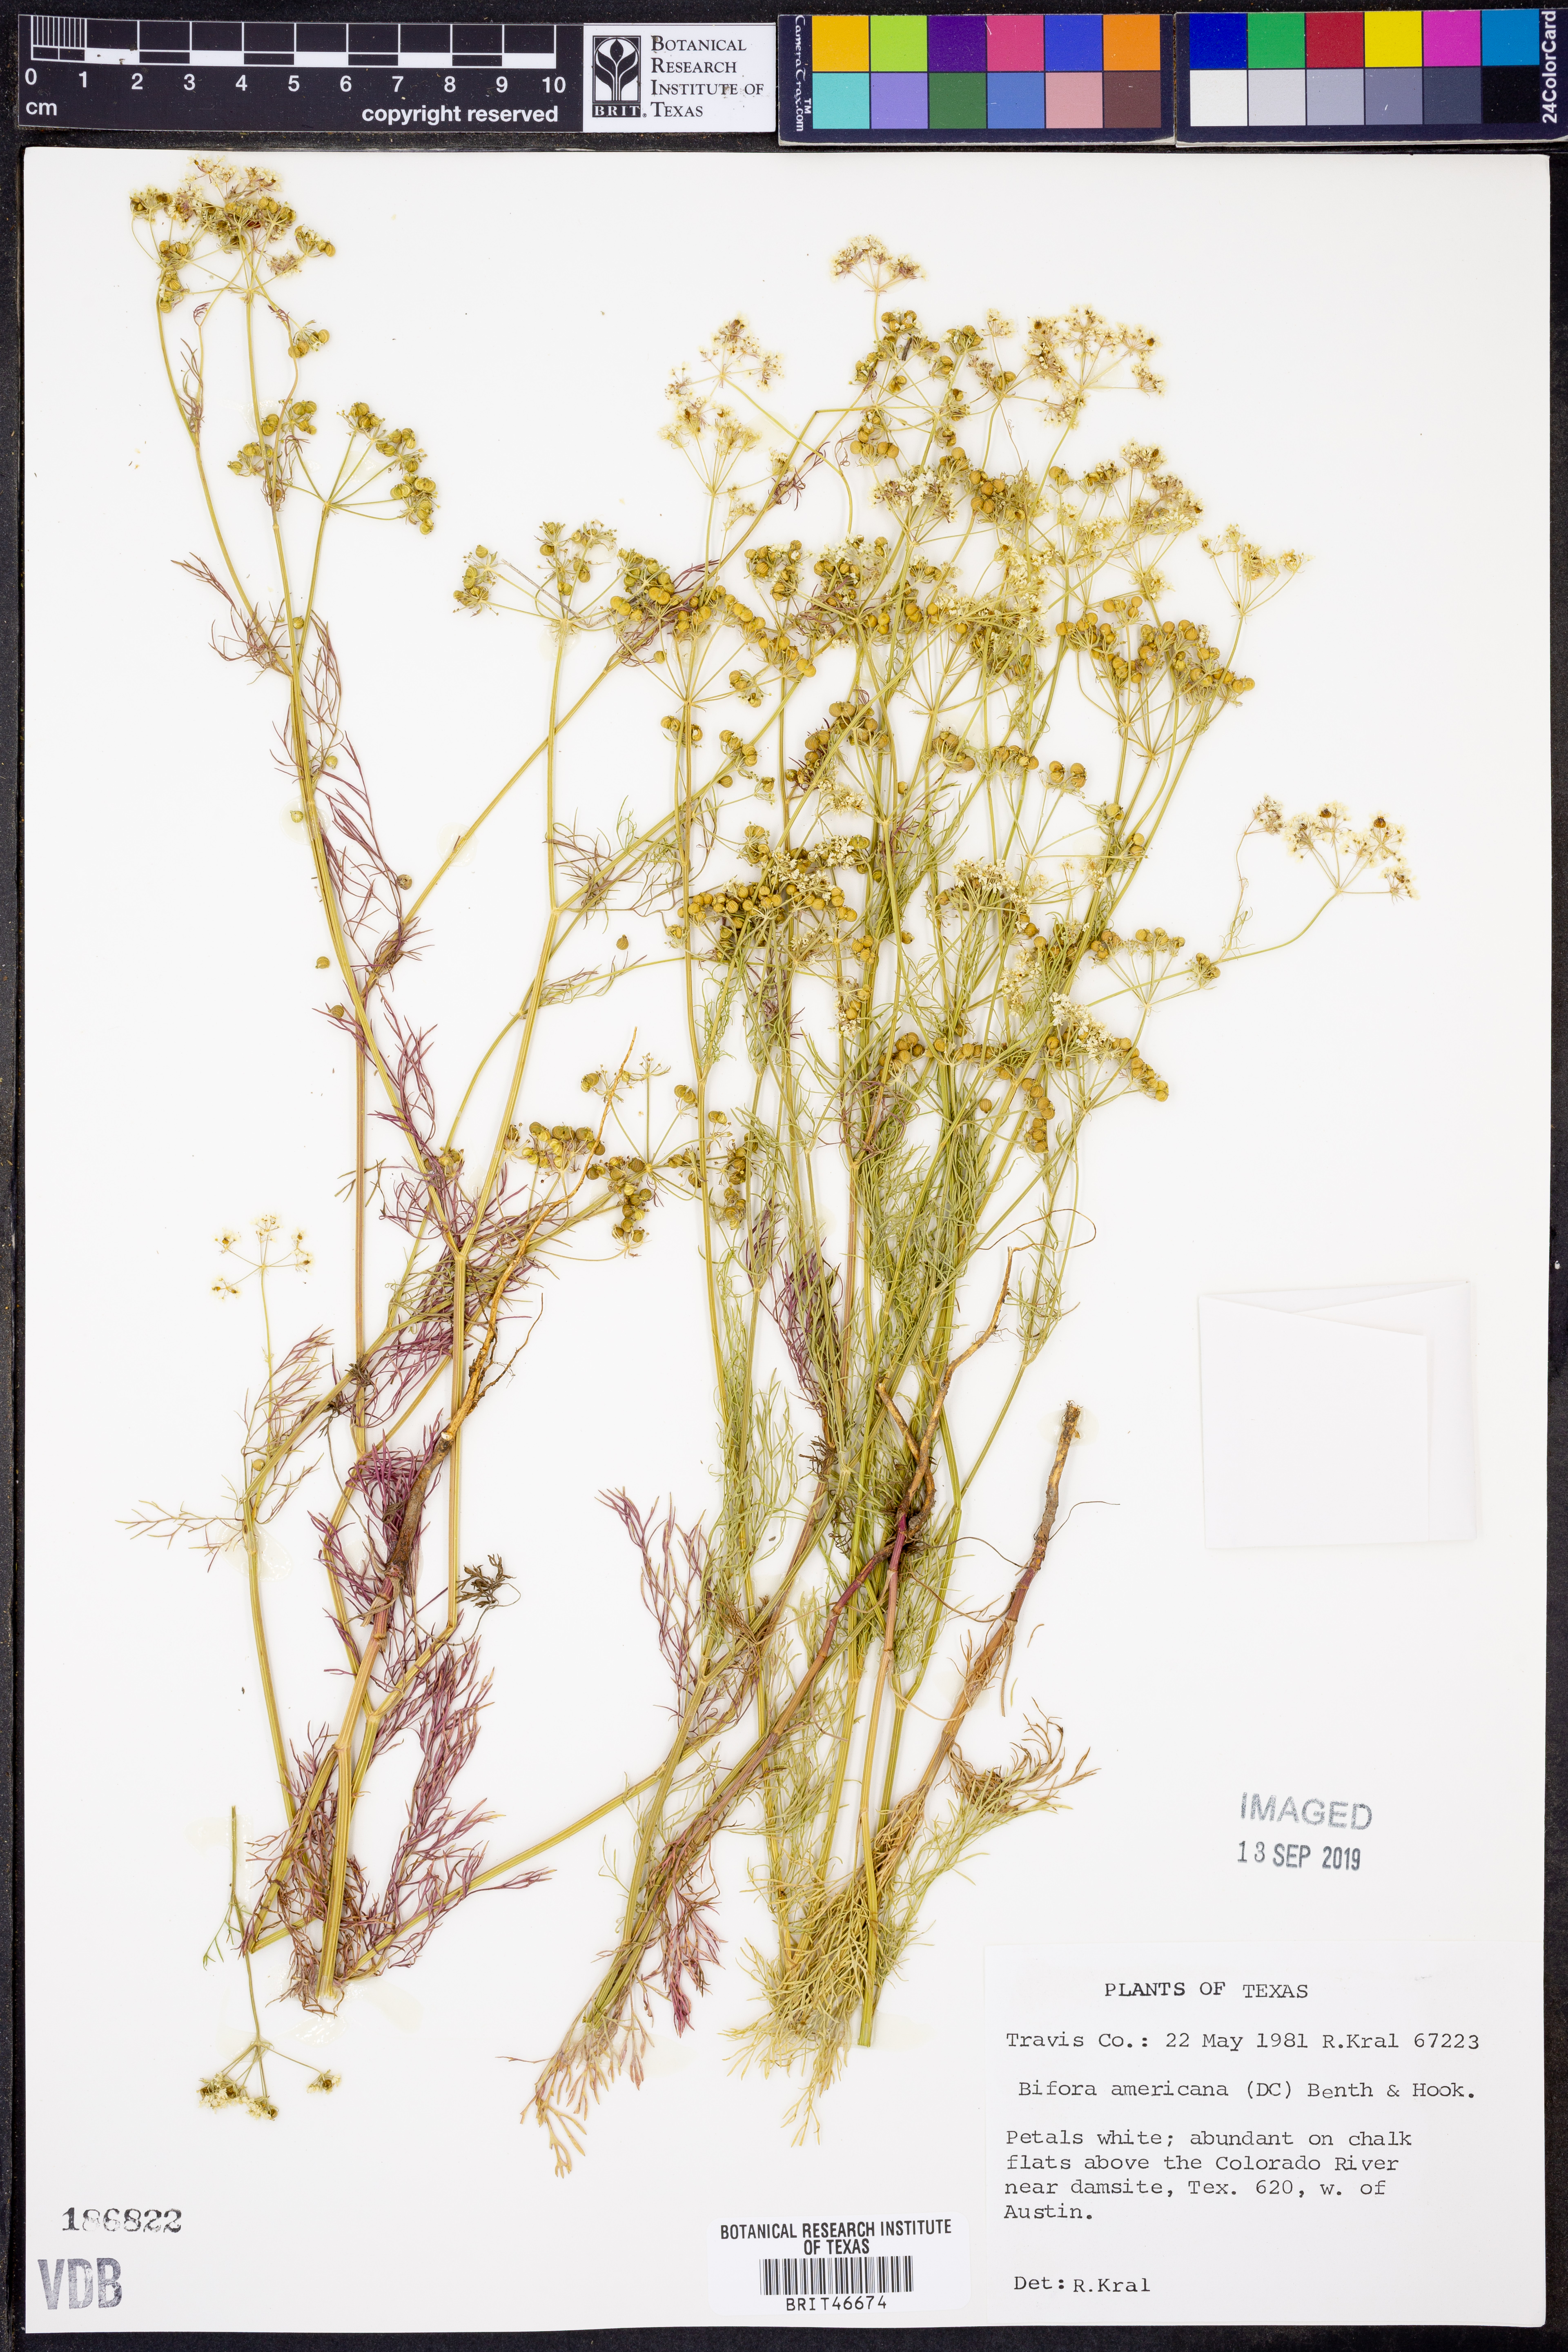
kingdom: Plantae
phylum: Tracheophyta
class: Magnoliopsida
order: Apiales
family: Apiaceae
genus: Atrema
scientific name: Atrema americanum
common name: Prairie-bishop
